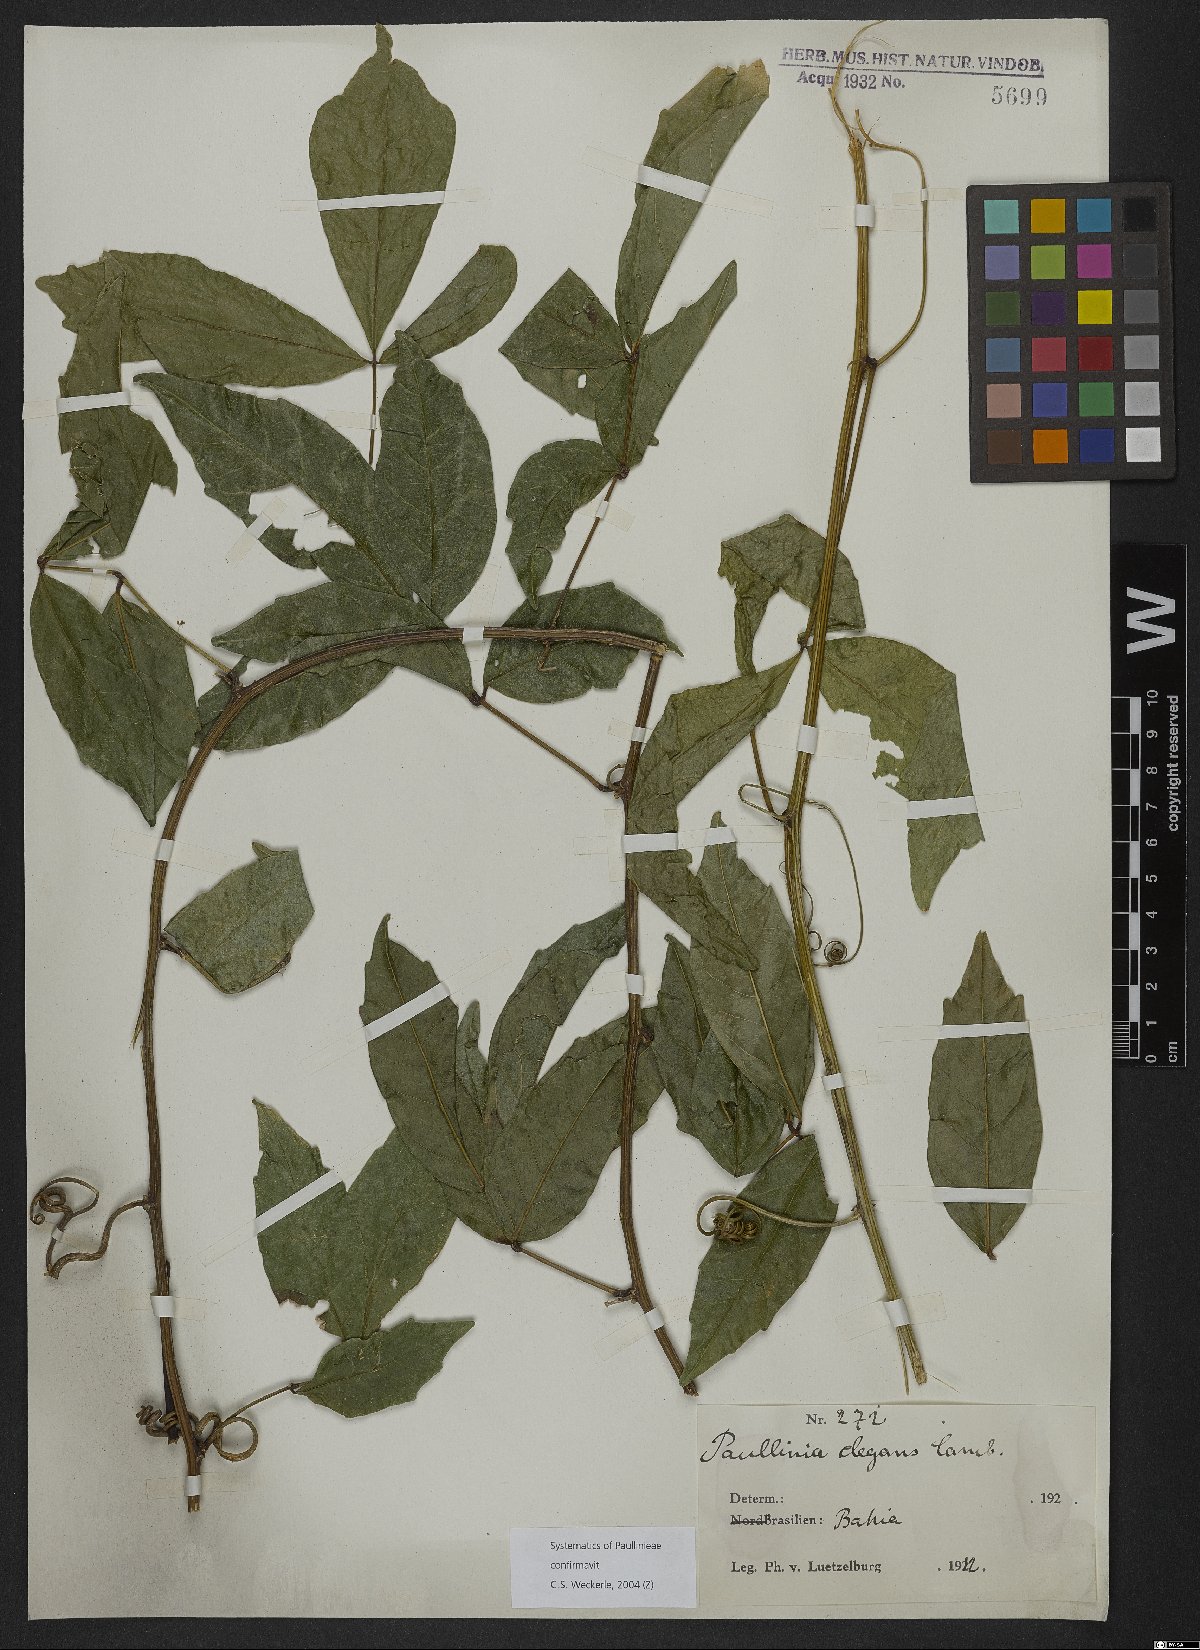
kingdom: Plantae
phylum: Tracheophyta
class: Magnoliopsida
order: Sapindales
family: Sapindaceae
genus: Paullinia
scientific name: Paullinia elegans
